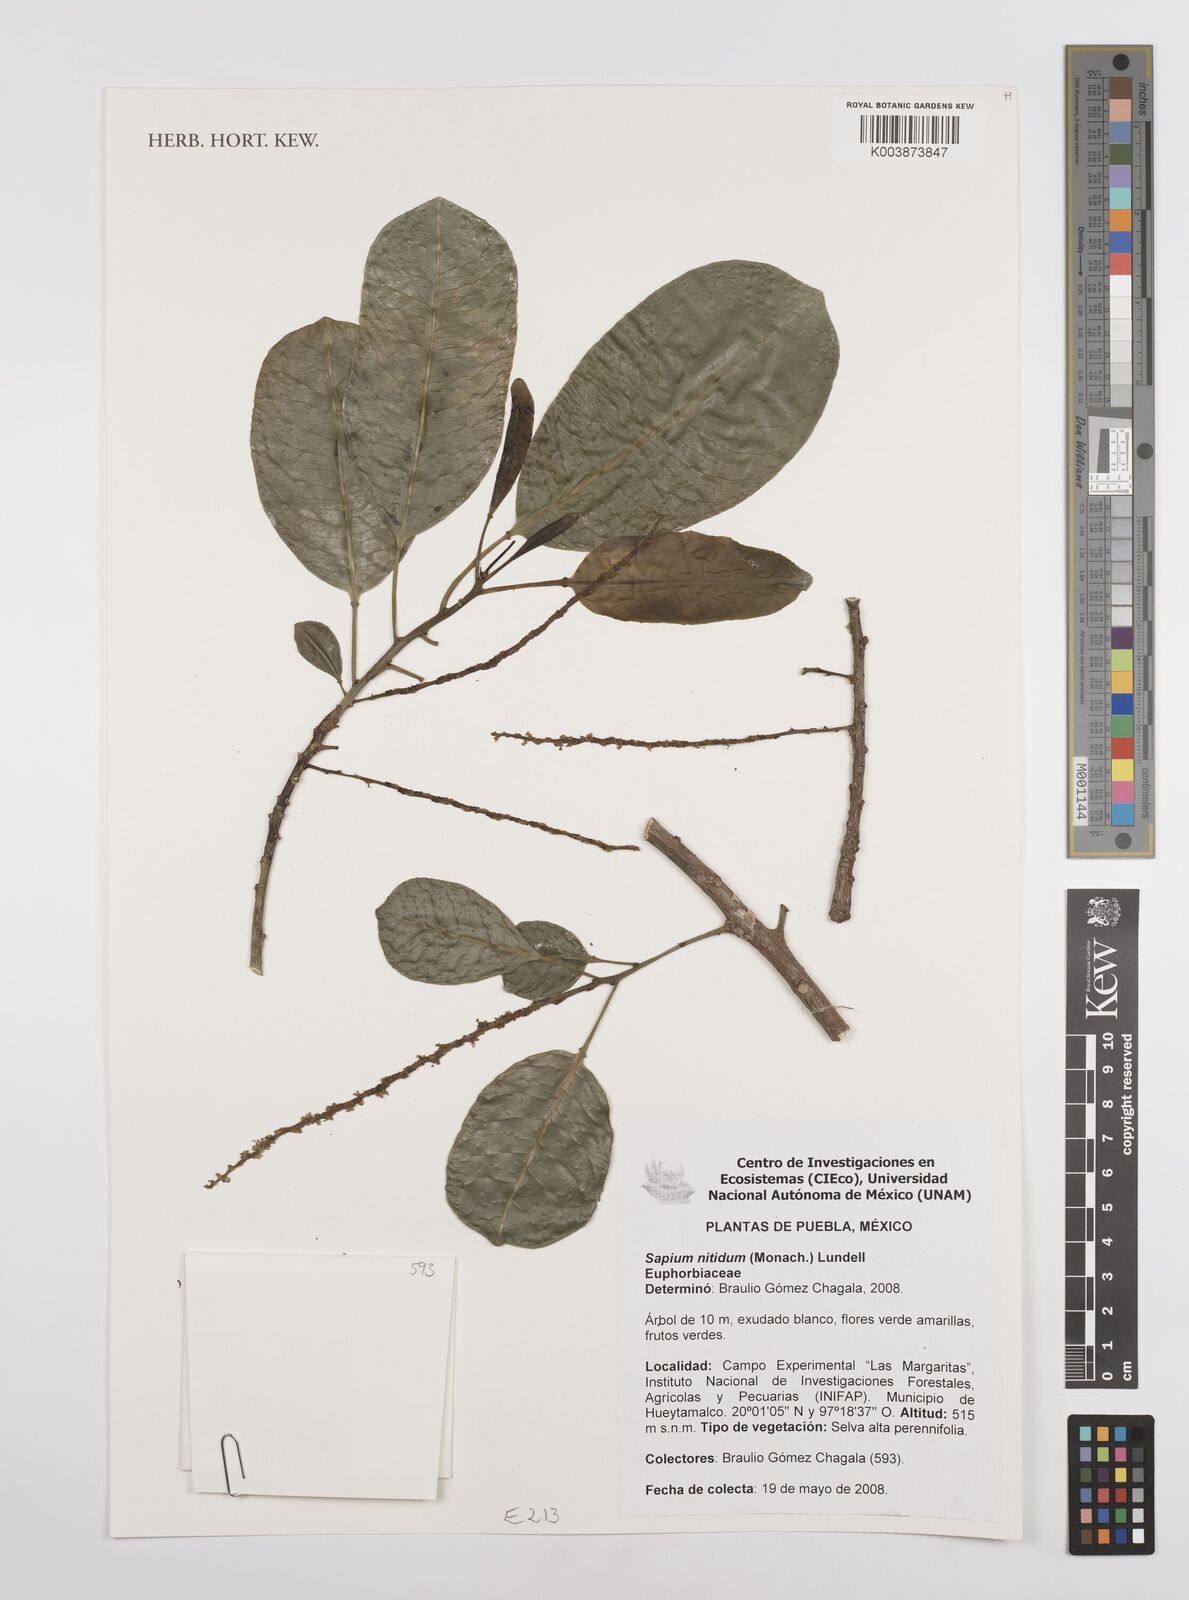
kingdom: Plantae
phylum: Tracheophyta
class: Magnoliopsida
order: Malpighiales
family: Euphorbiaceae
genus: Sapium
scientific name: Sapium lateriflorum
